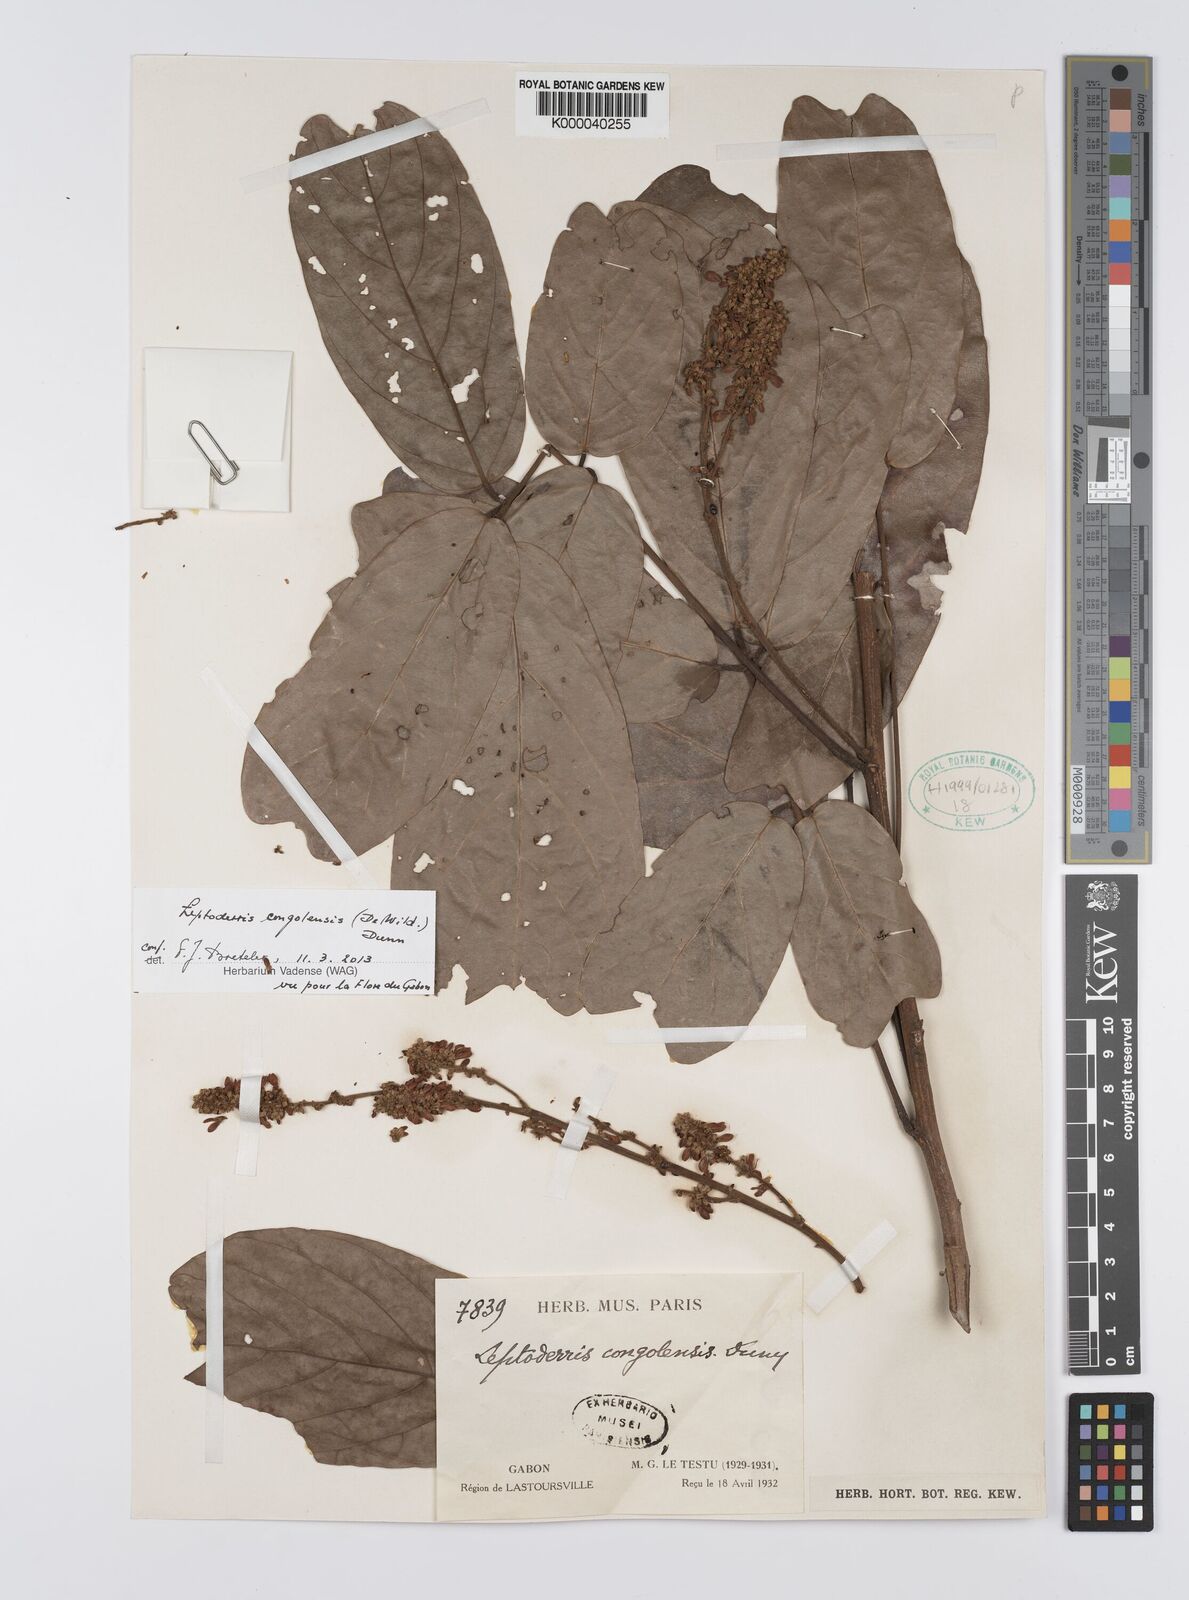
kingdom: Plantae
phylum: Tracheophyta
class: Magnoliopsida
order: Fabales
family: Fabaceae
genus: Leptoderris
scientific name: Leptoderris congolensis
